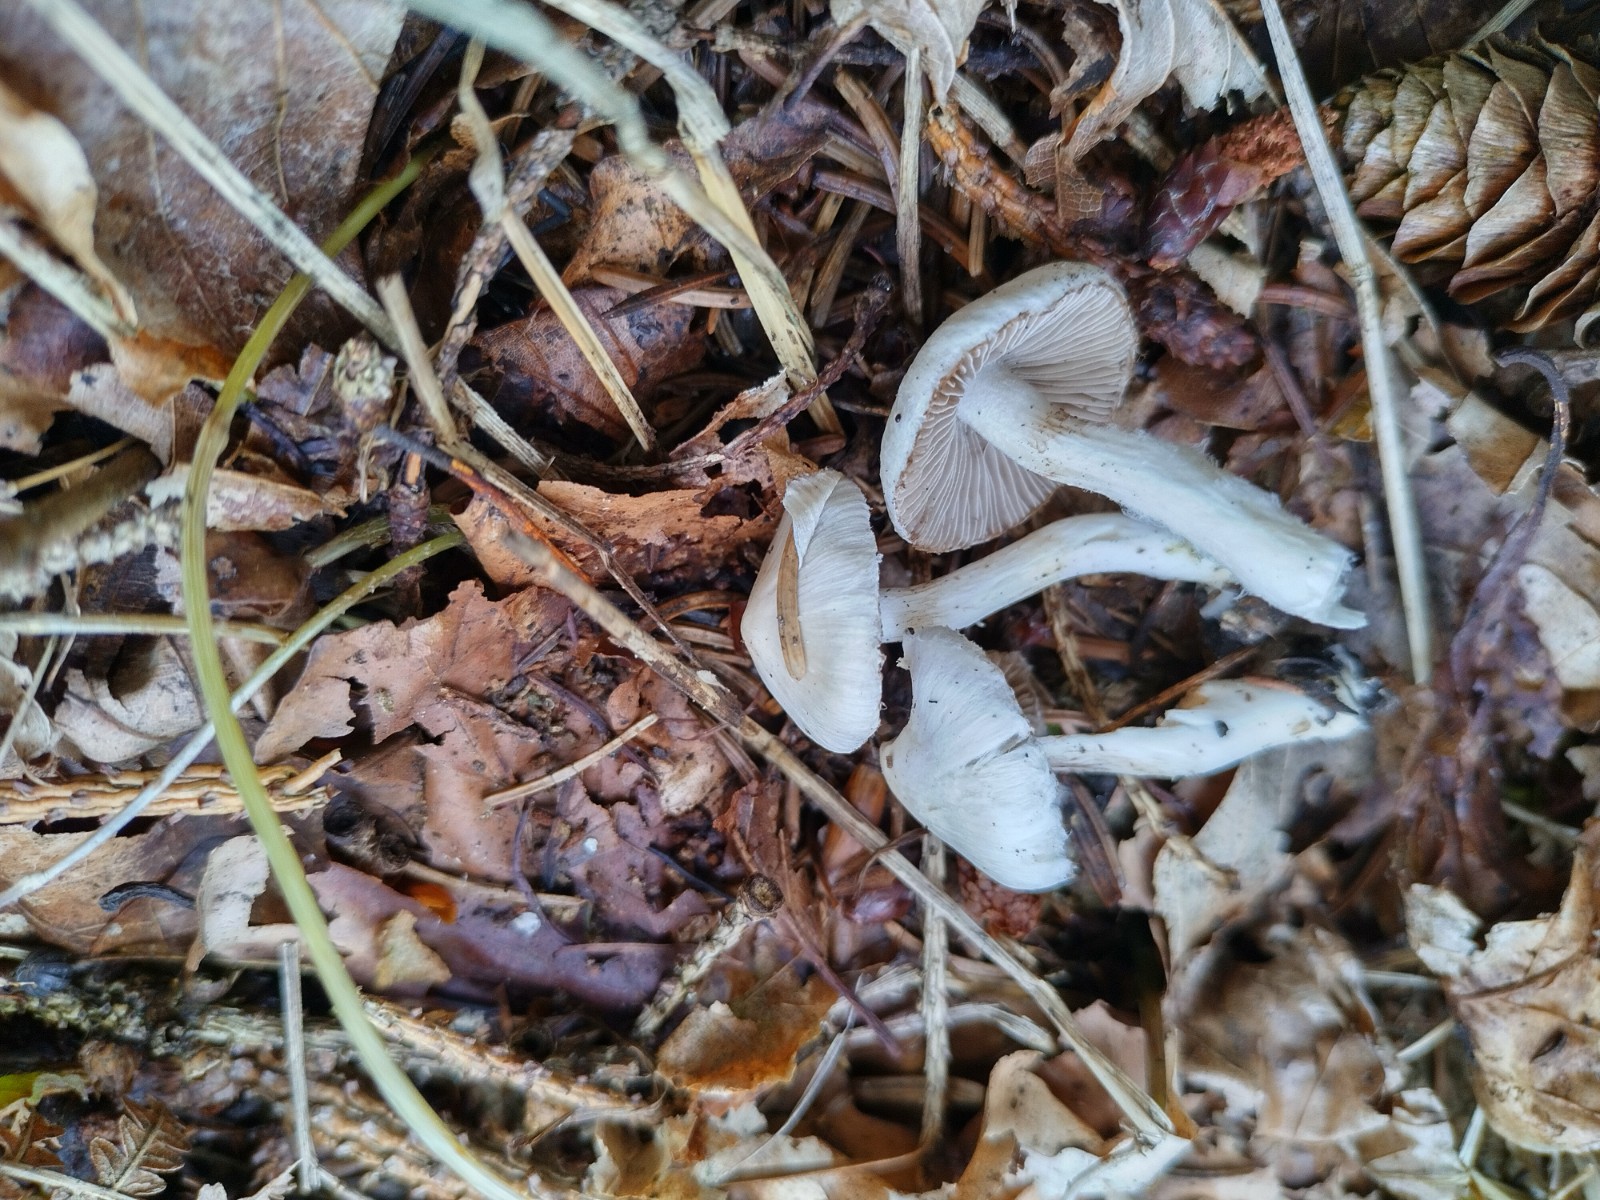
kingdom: Fungi
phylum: Basidiomycota
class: Agaricomycetes
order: Agaricales
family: Inocybaceae
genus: Inocybe
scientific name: Inocybe
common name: almindelig trævlhat
